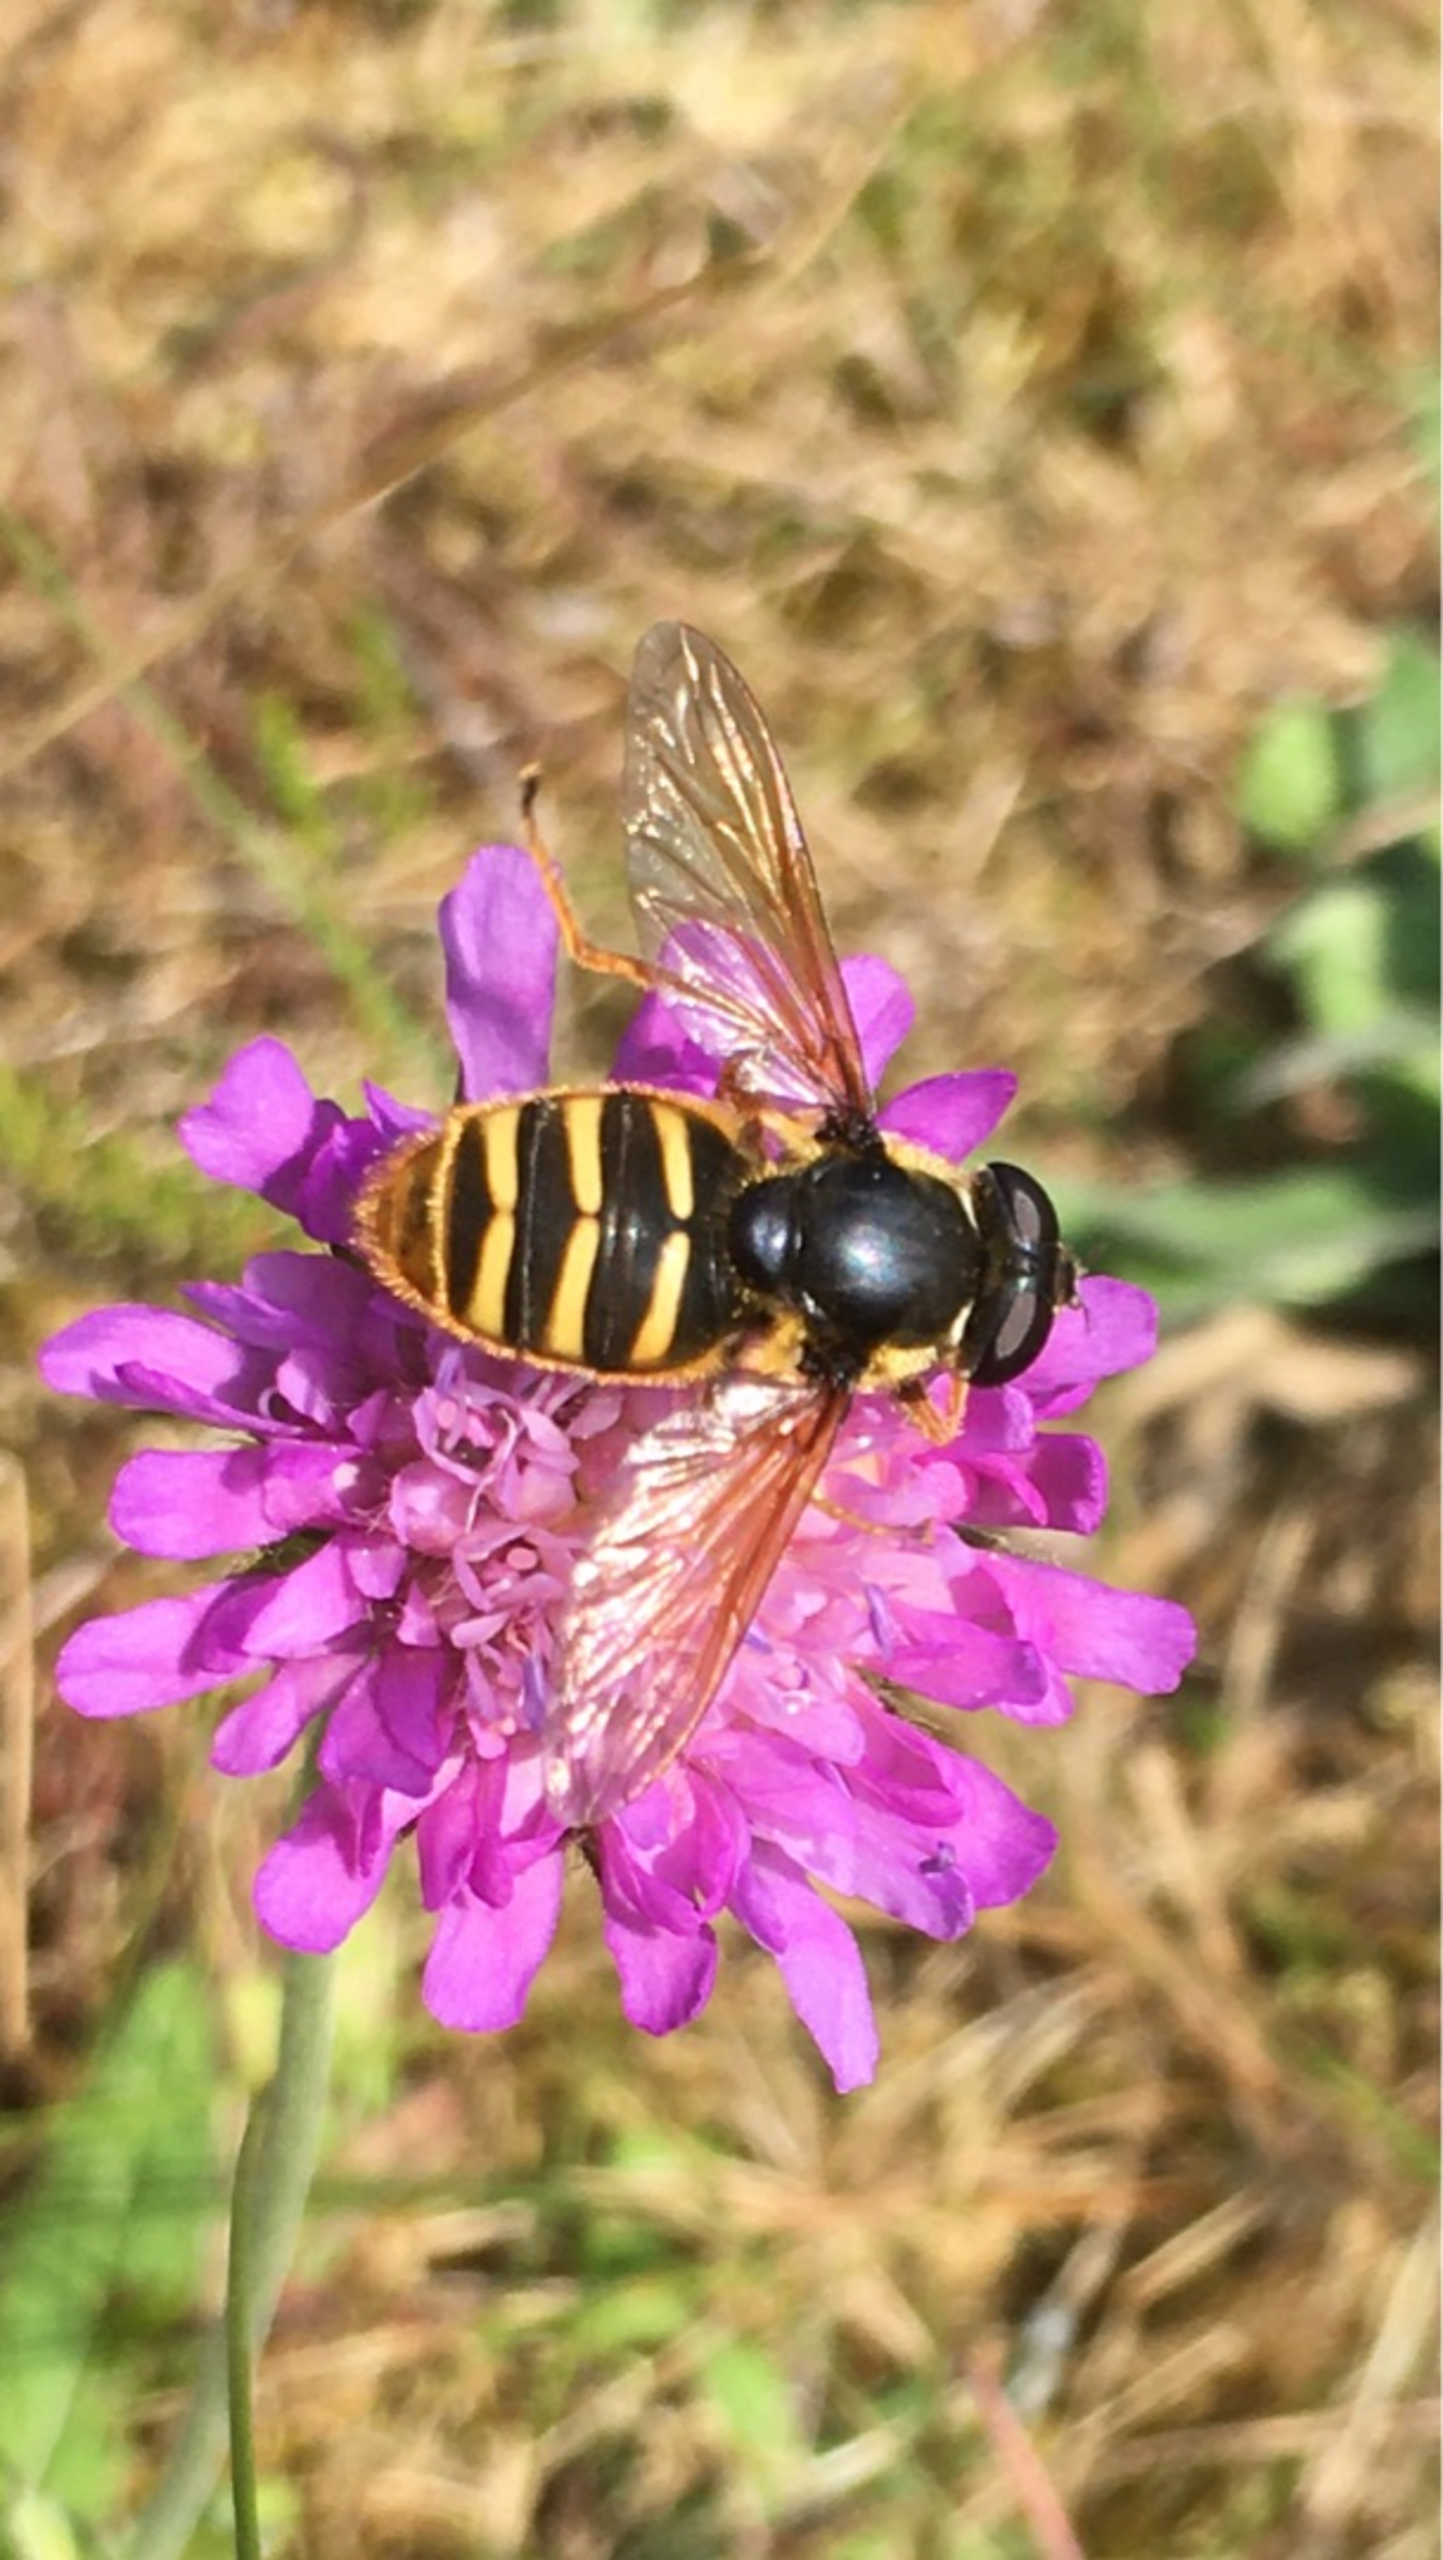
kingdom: Animalia
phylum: Arthropoda
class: Insecta
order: Diptera
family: Syrphidae
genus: Sericomyia
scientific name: Sericomyia silentis
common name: Tørve-silkesvirreflue
